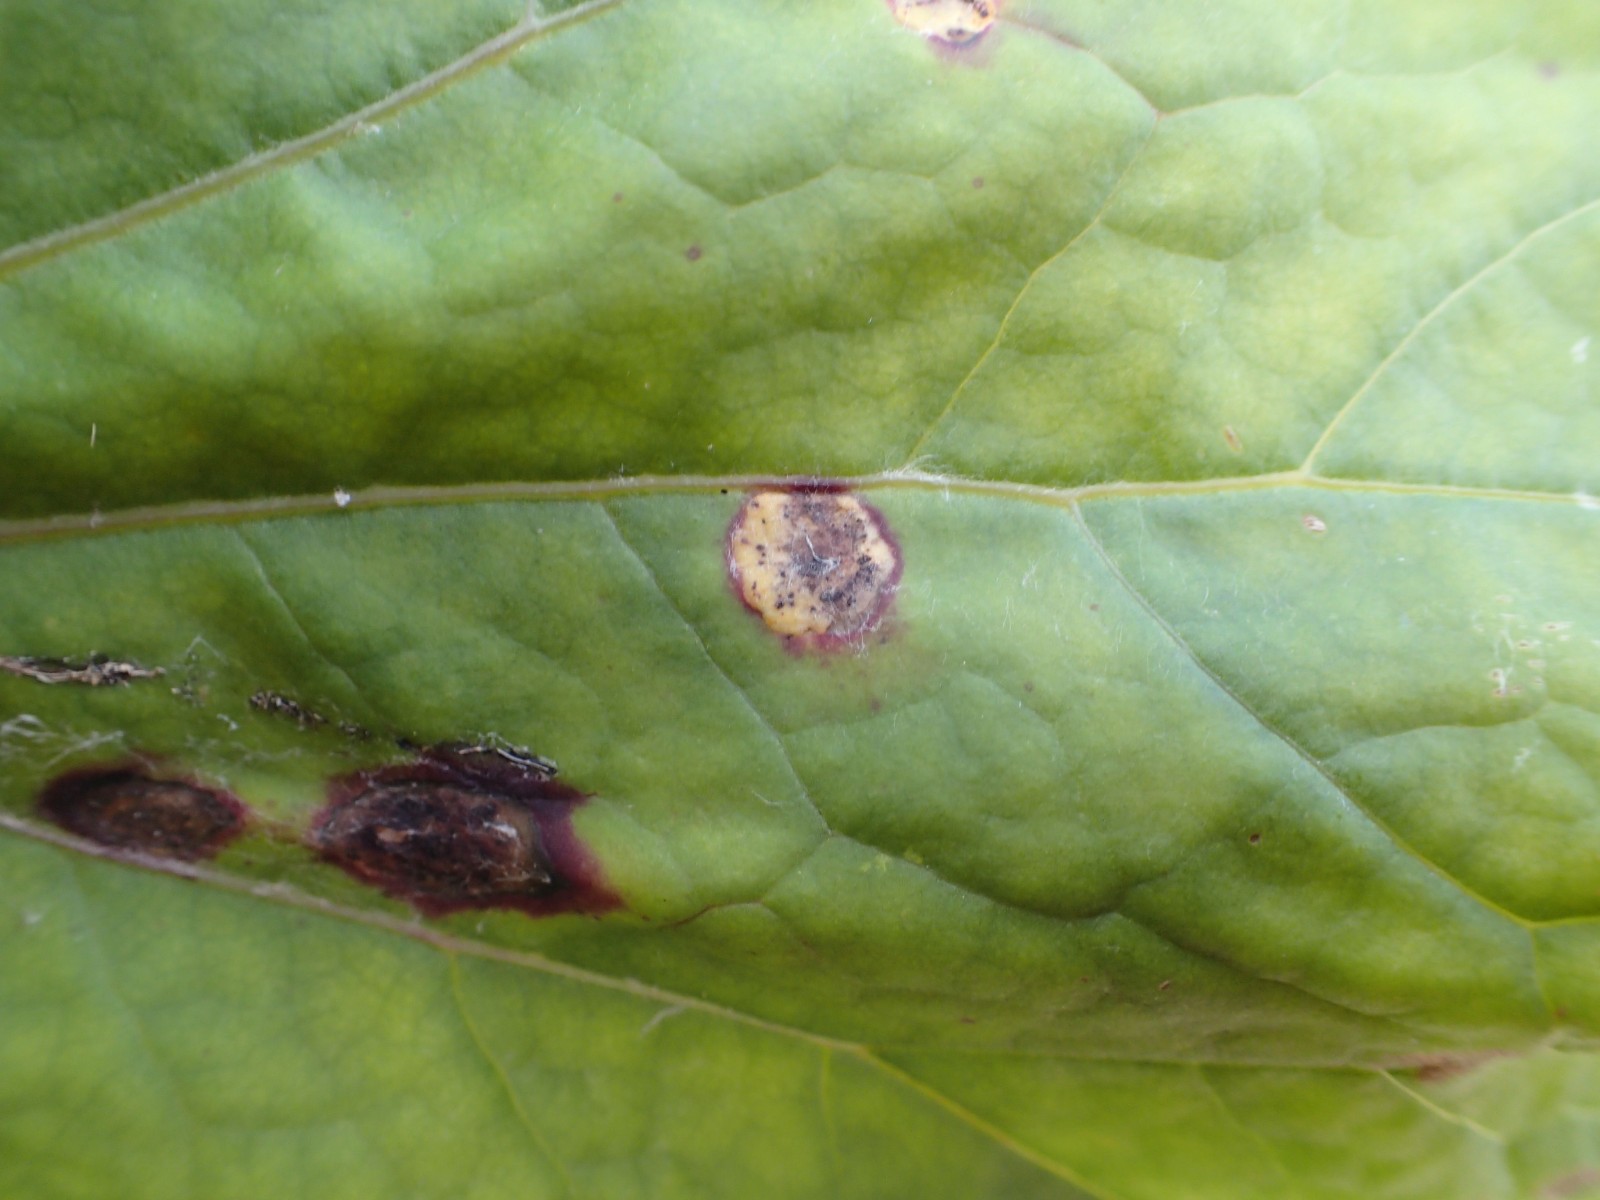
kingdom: Fungi
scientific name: Fungi
